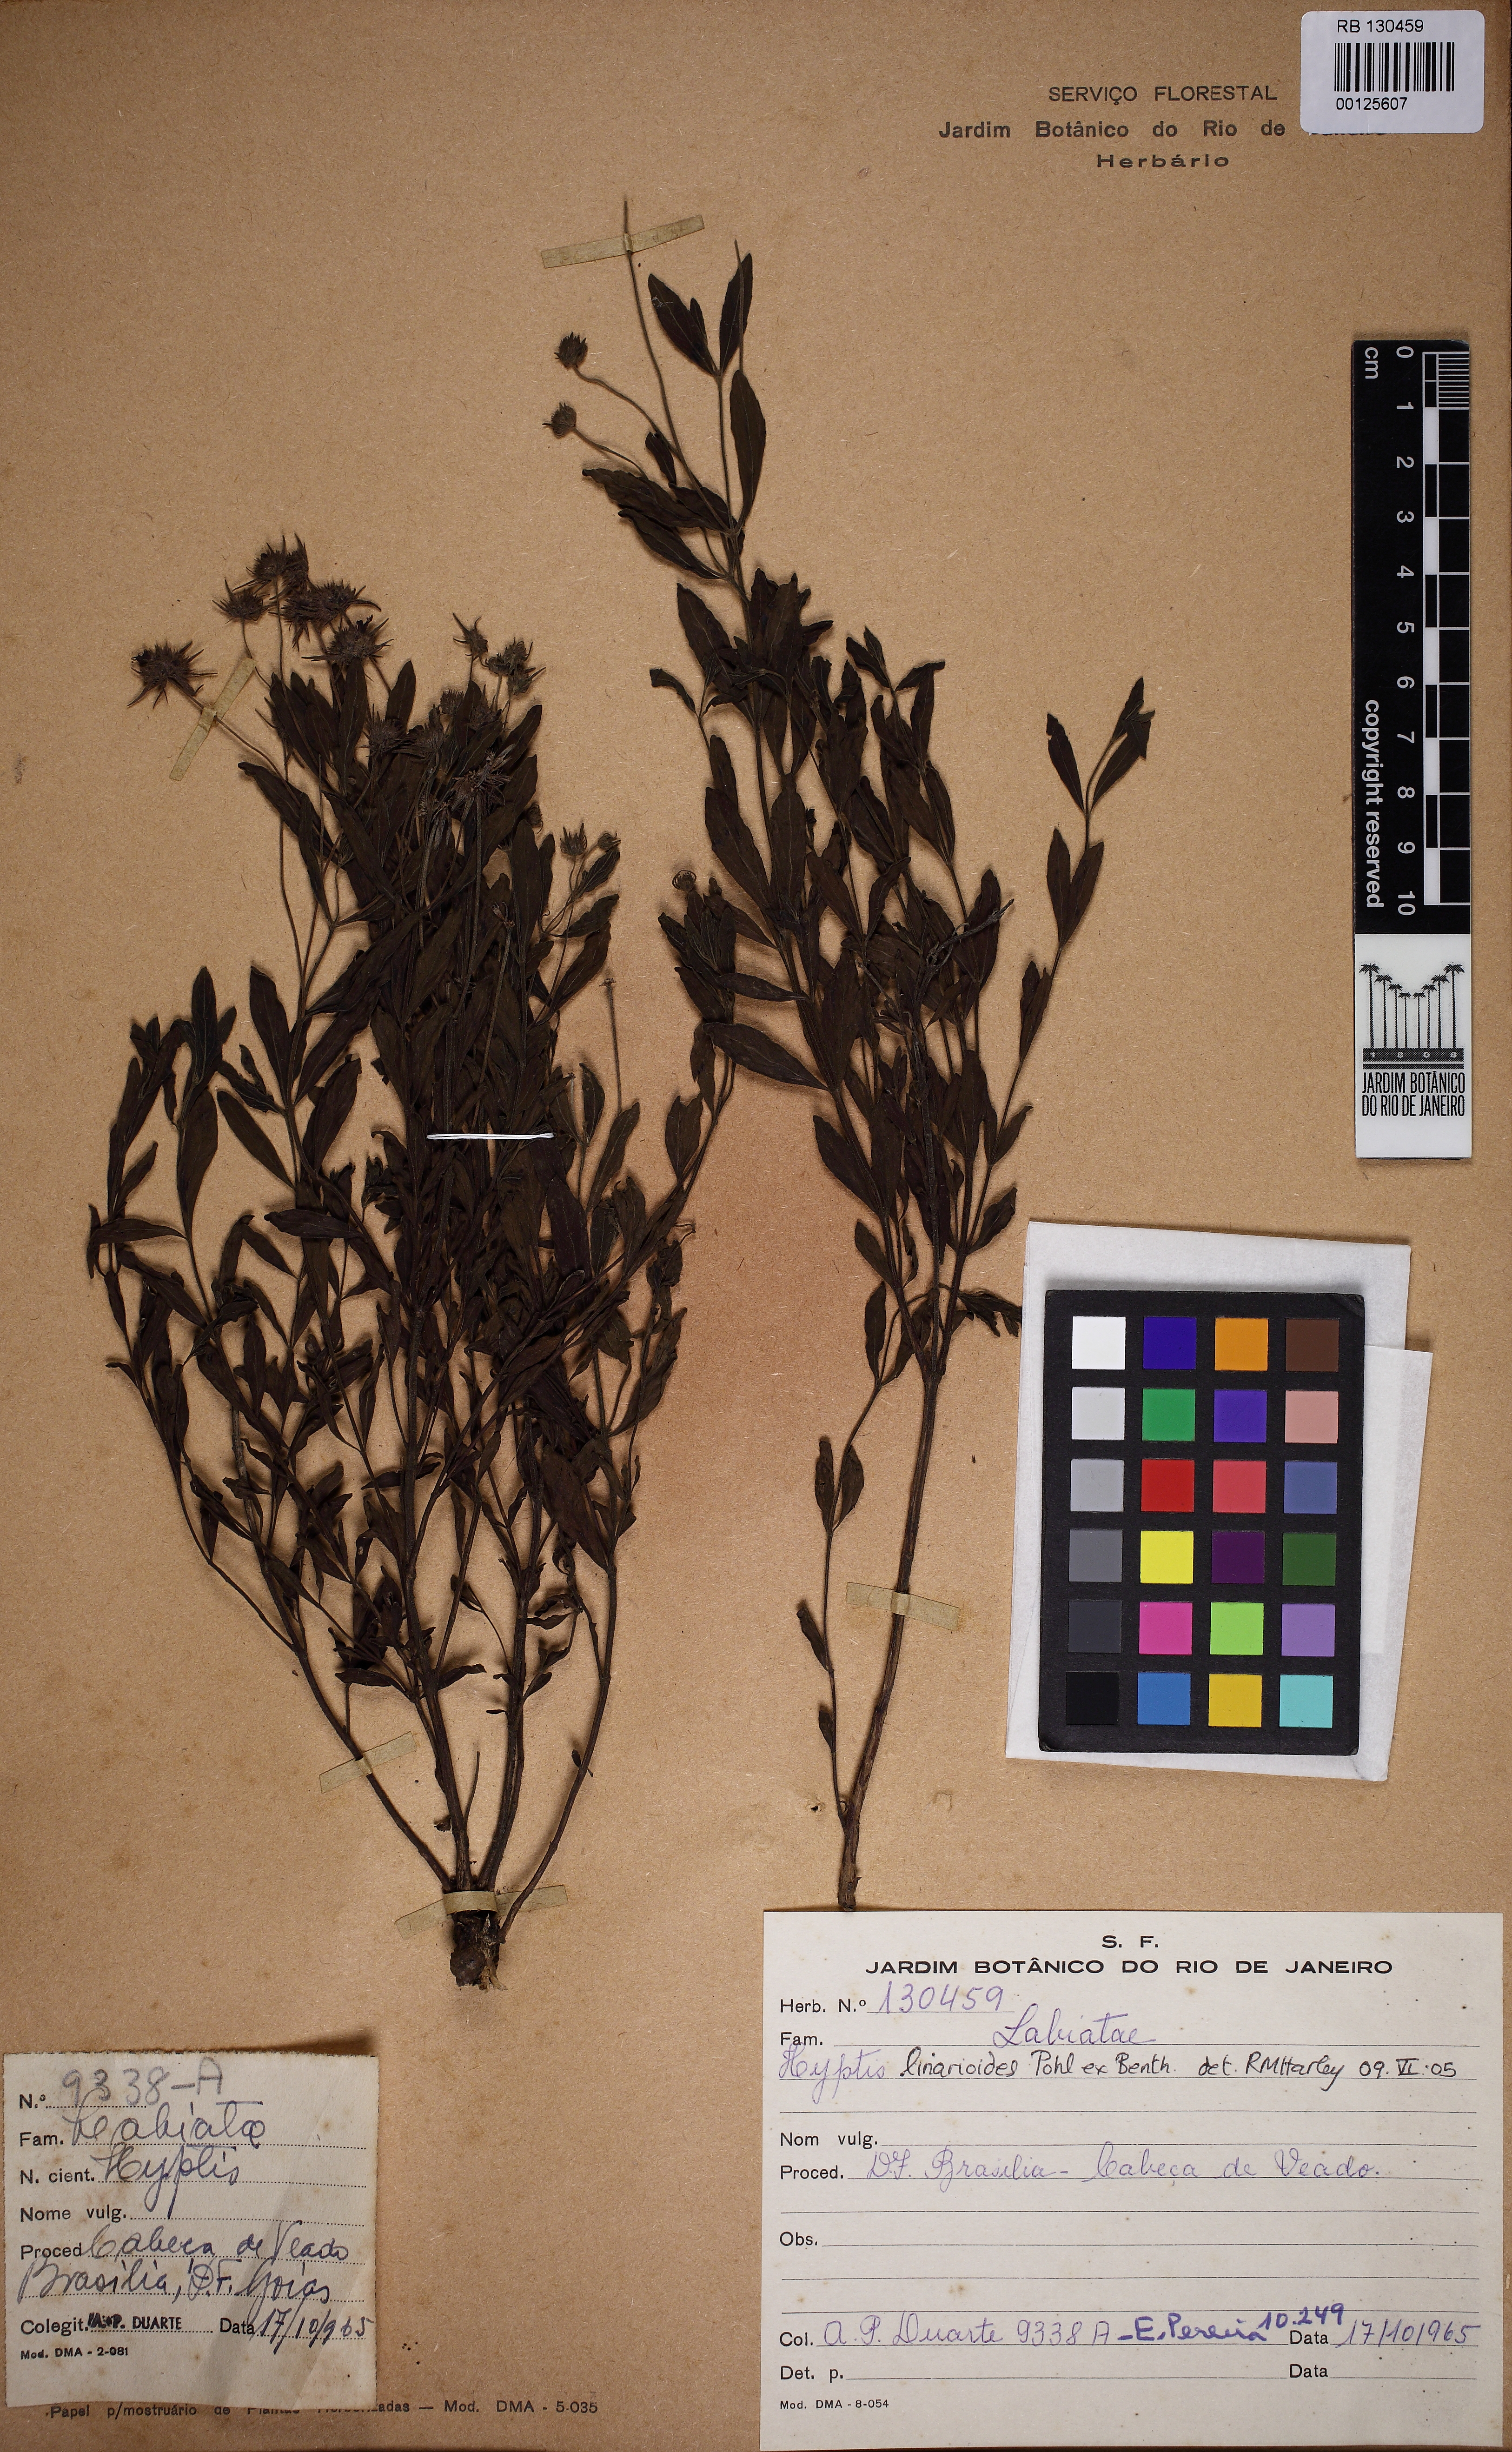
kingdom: Plantae
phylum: Tracheophyta
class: Magnoliopsida
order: Lamiales
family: Lamiaceae
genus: Hyptis
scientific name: Hyptis linarioides
